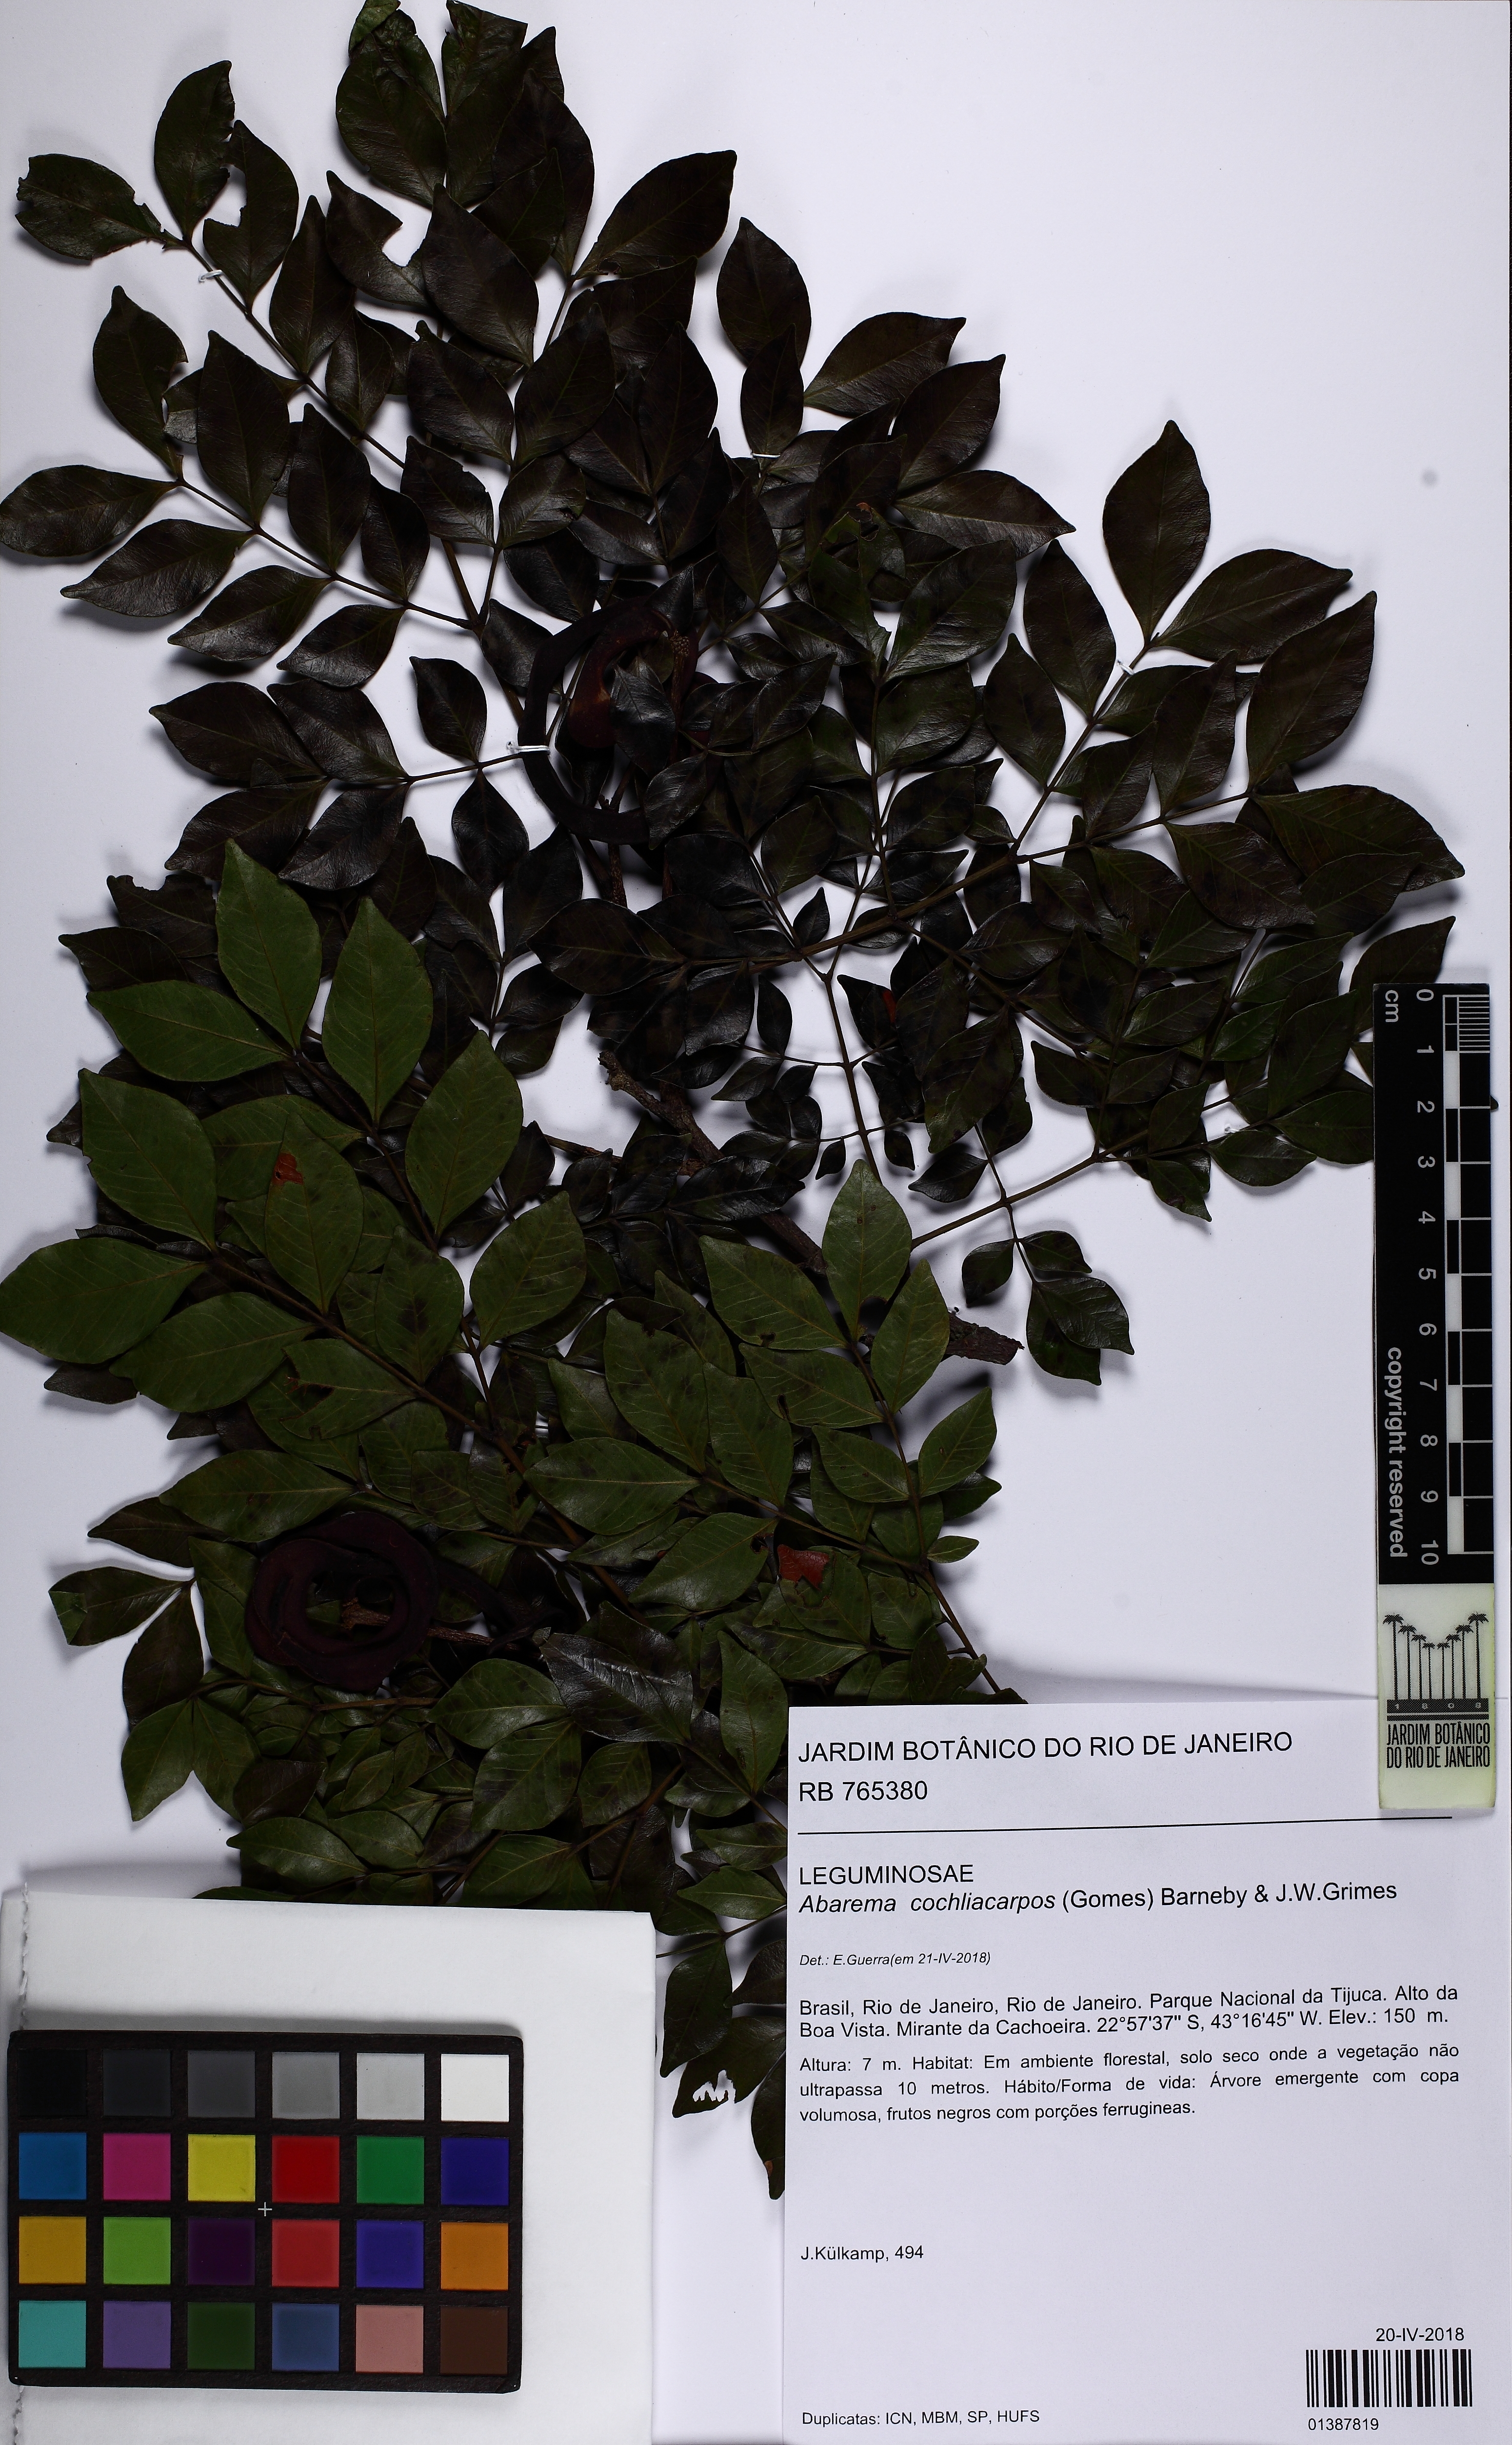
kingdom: Plantae
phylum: Tracheophyta
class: Magnoliopsida
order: Fabales
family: Fabaceae
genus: Abarema
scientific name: Abarema cochliacarpos
